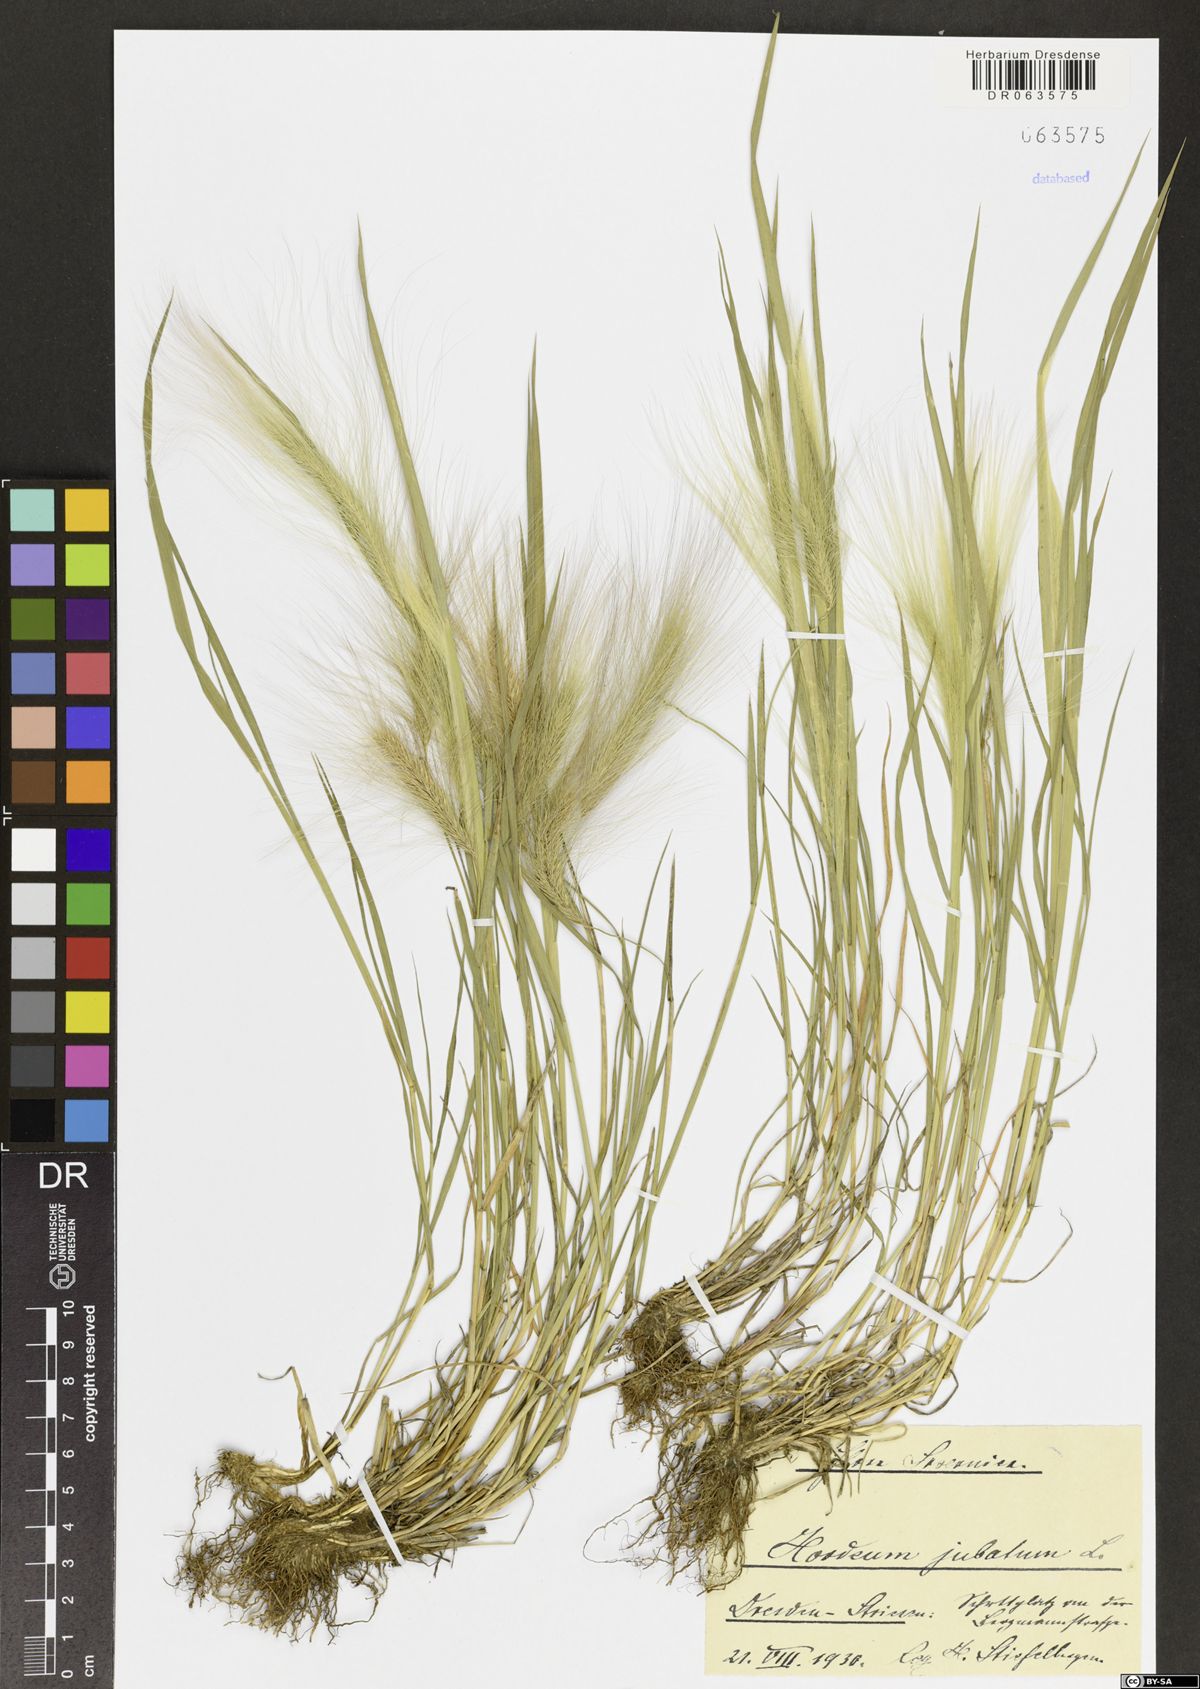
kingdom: Plantae
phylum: Tracheophyta
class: Liliopsida
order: Poales
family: Poaceae
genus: Hordeum
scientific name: Hordeum jubatum
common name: Foxtail barley
